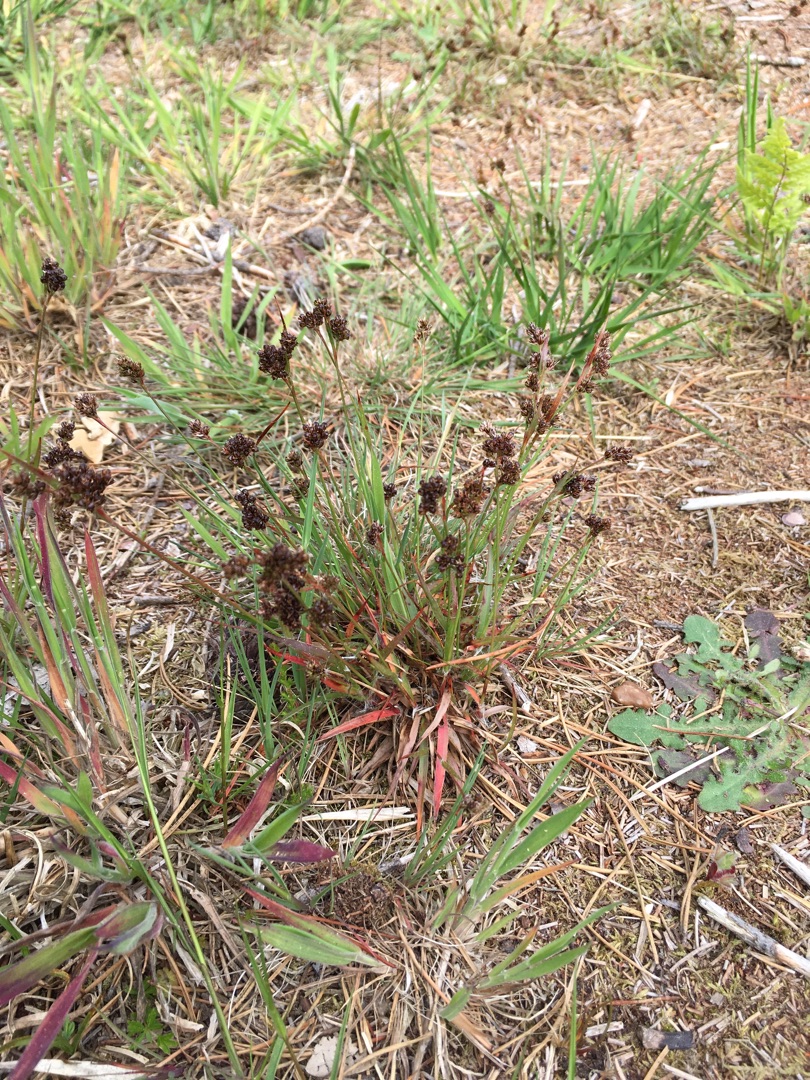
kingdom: Plantae
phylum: Tracheophyta
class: Liliopsida
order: Poales
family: Juncaceae
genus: Luzula
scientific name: Luzula multiflora
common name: Mangeblomstret frytle
